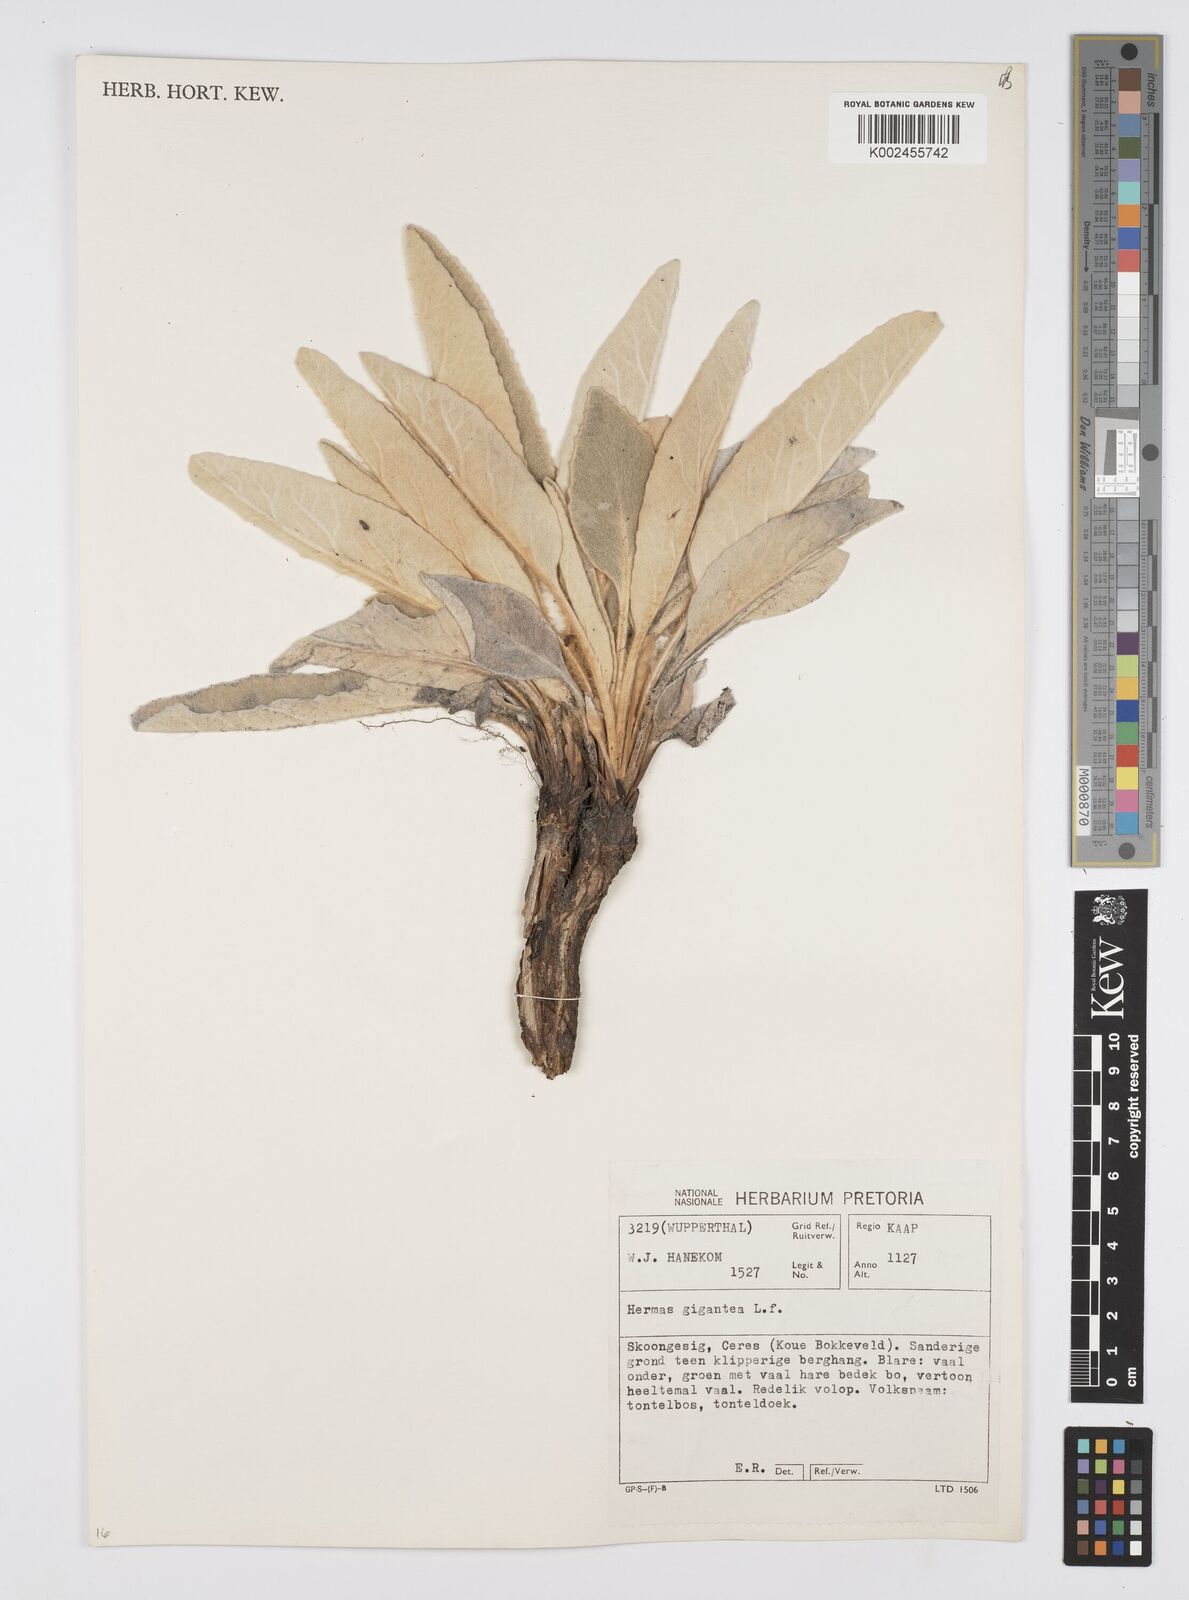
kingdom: Plantae
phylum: Tracheophyta
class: Magnoliopsida
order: Apiales
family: Apiaceae
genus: Hermas
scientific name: Hermas gigantea
